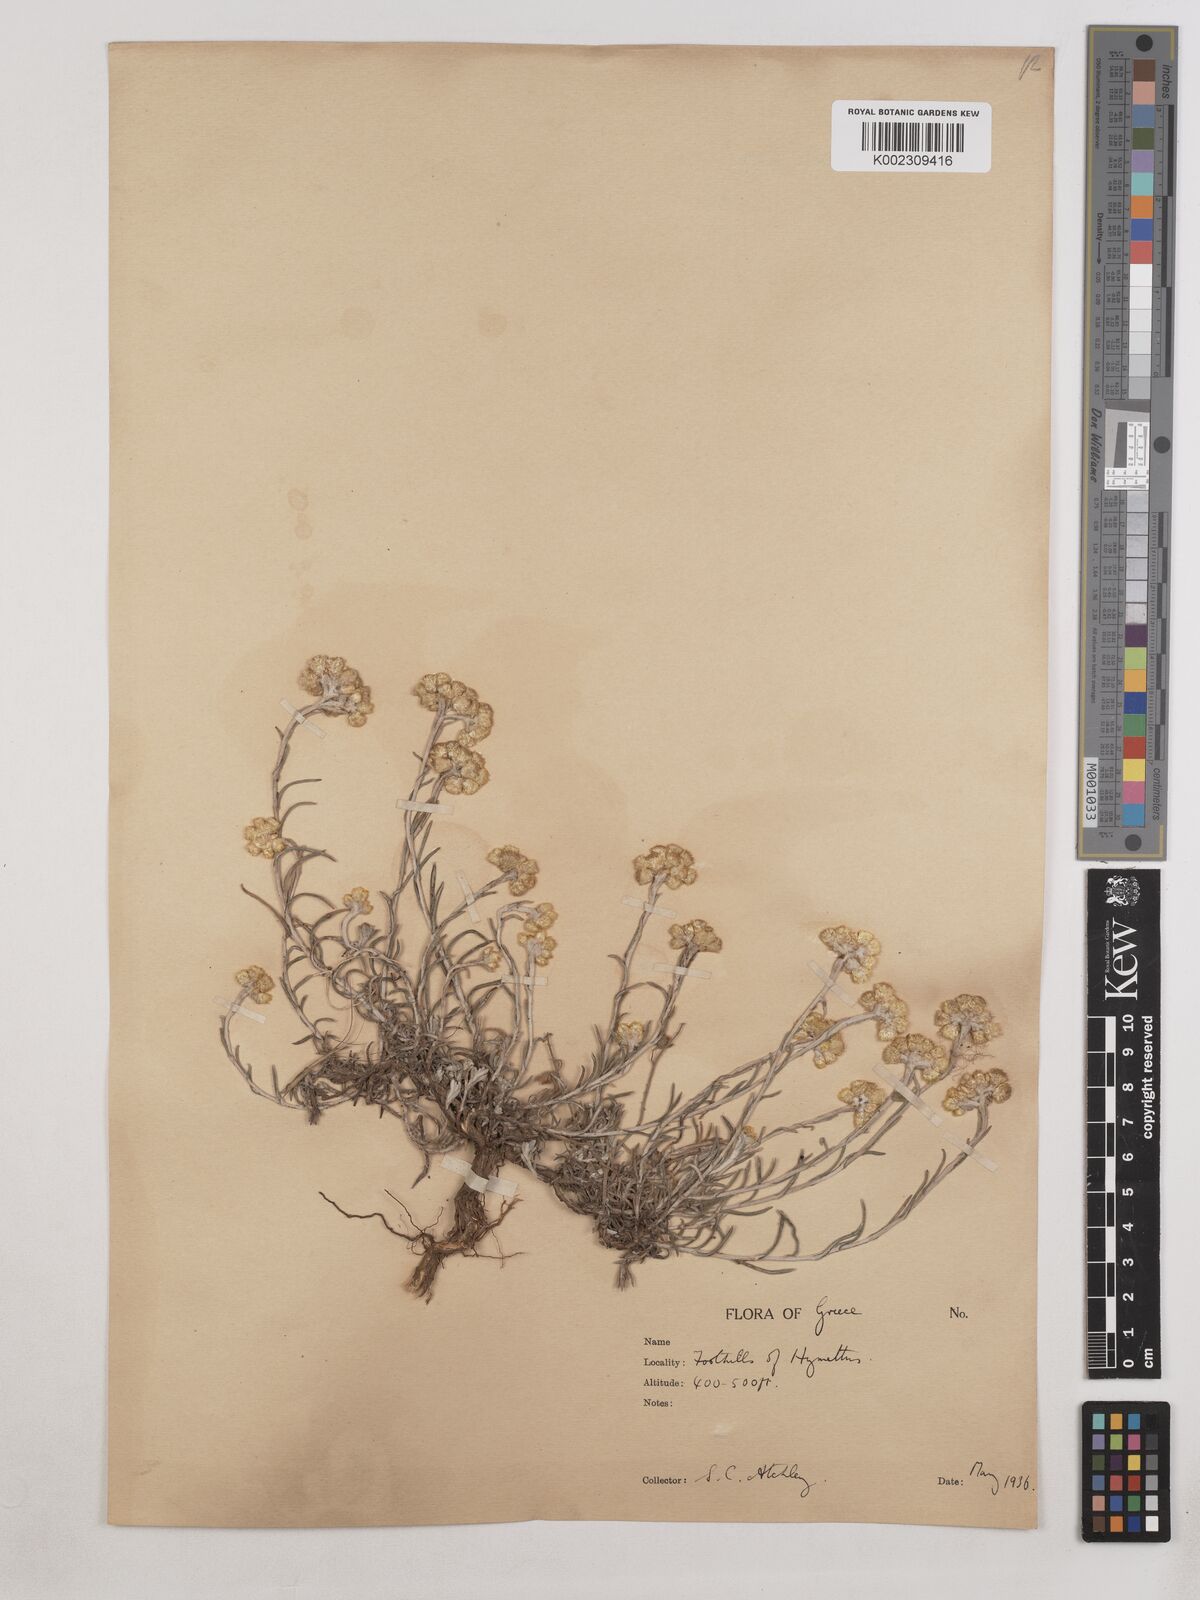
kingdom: Plantae
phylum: Tracheophyta
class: Magnoliopsida
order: Asterales
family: Asteraceae
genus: Helichrysum
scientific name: Helichrysum stoechas
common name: Goldilocks
